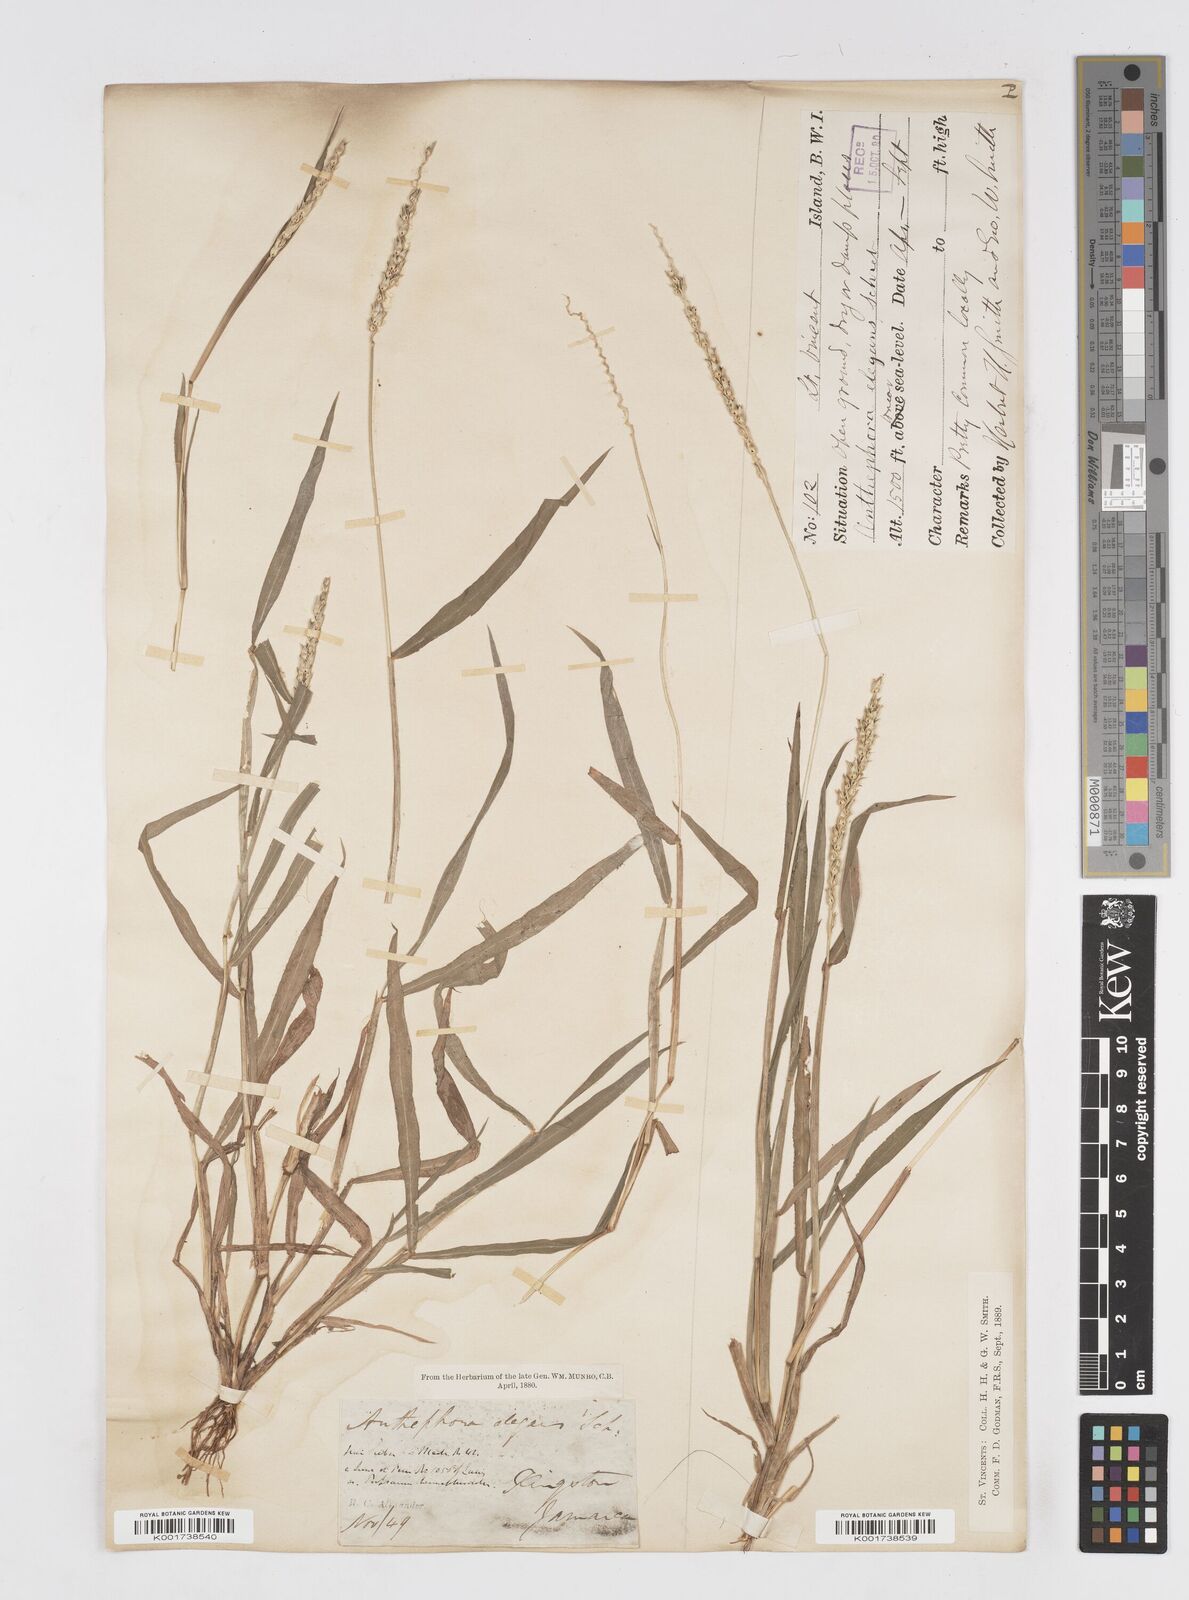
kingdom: Plantae
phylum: Tracheophyta
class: Liliopsida
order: Poales
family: Poaceae
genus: Anthephora
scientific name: Anthephora hermaphrodita
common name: Oldfield grass
